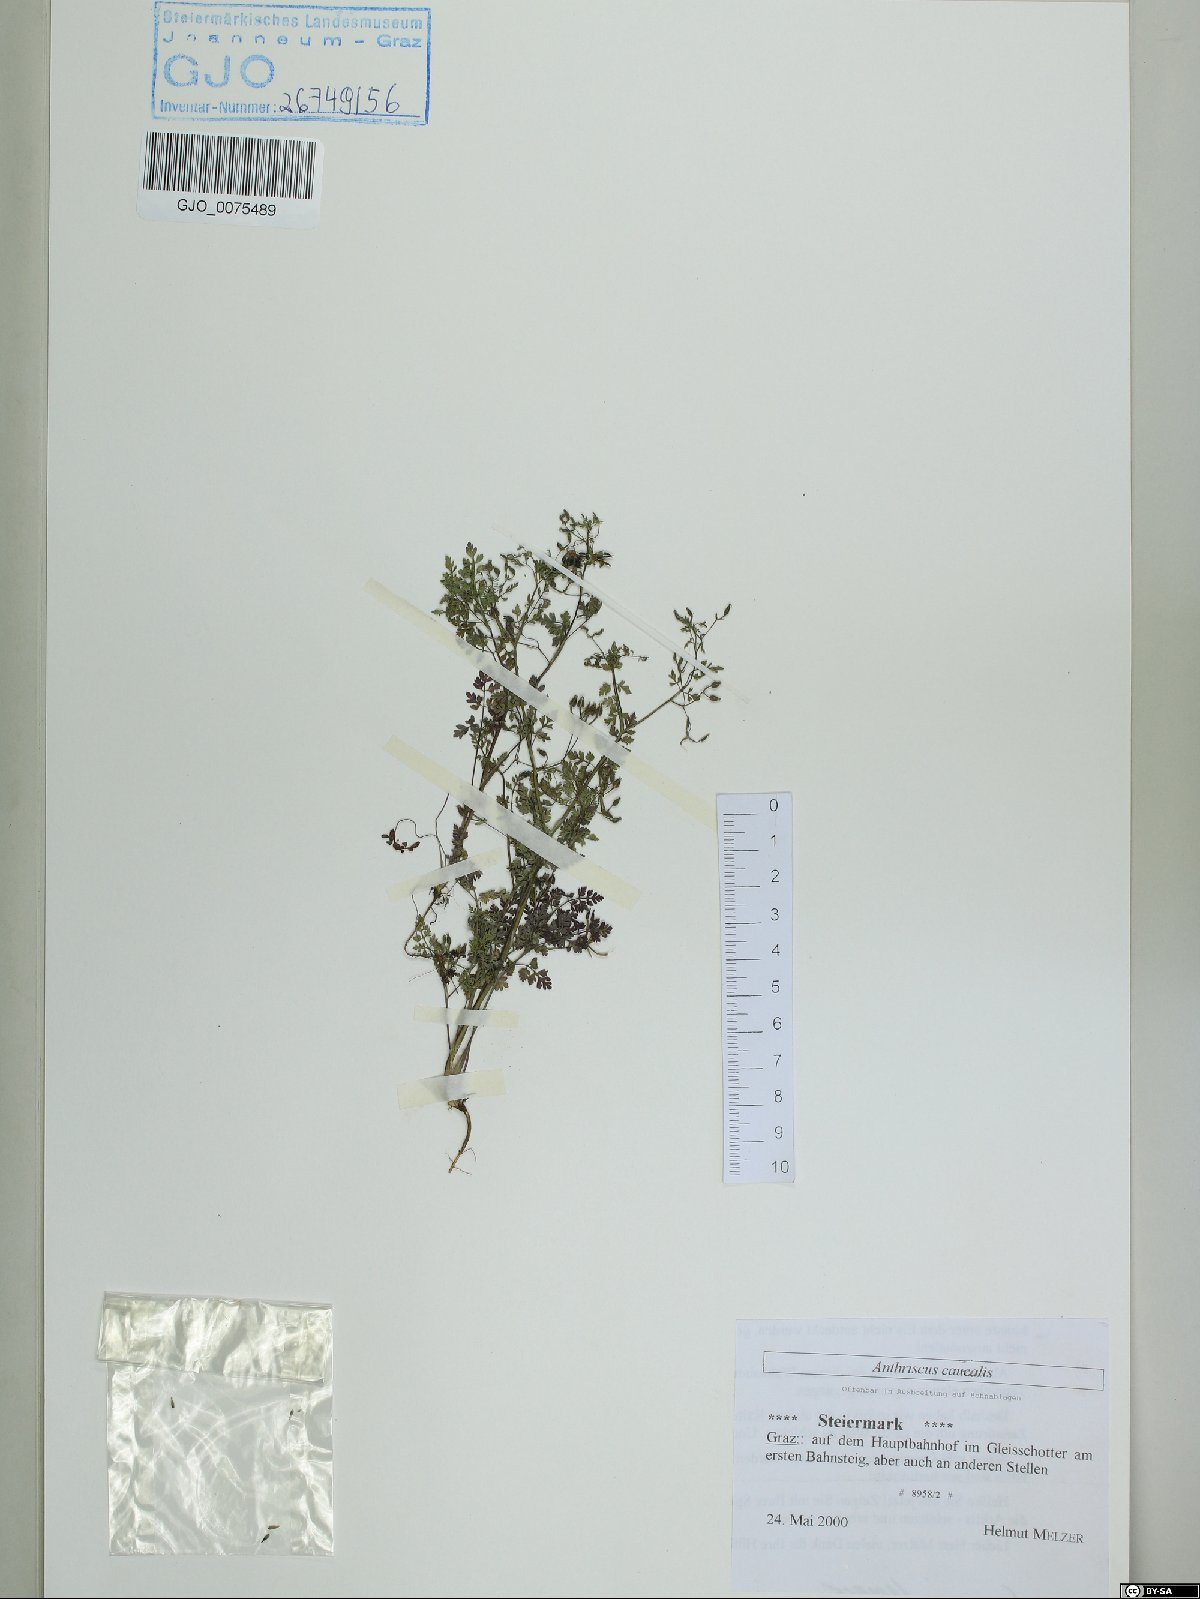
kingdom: Plantae
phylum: Tracheophyta
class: Magnoliopsida
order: Apiales
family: Apiaceae
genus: Anthriscus
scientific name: Anthriscus caucalis
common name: Bur chervil
